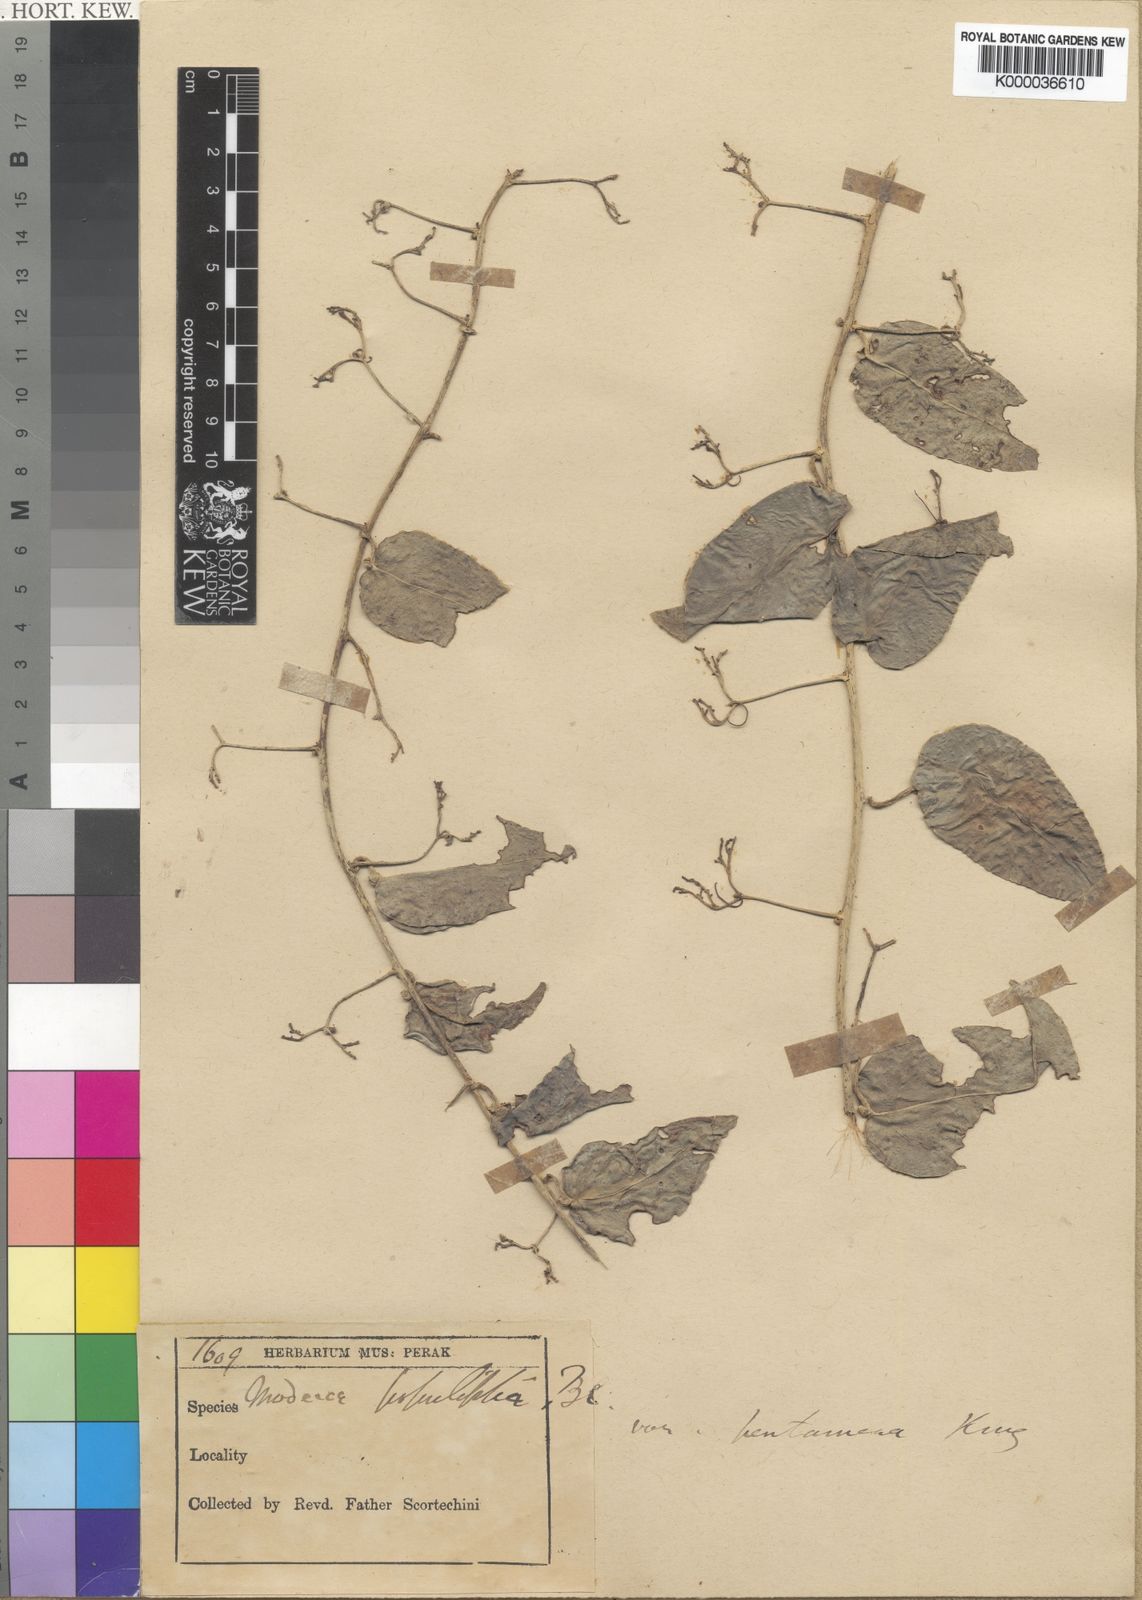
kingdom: Plantae
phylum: Tracheophyta
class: Magnoliopsida
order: Malpighiales
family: Passifloraceae
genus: Adenia
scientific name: Adenia cordifolia
